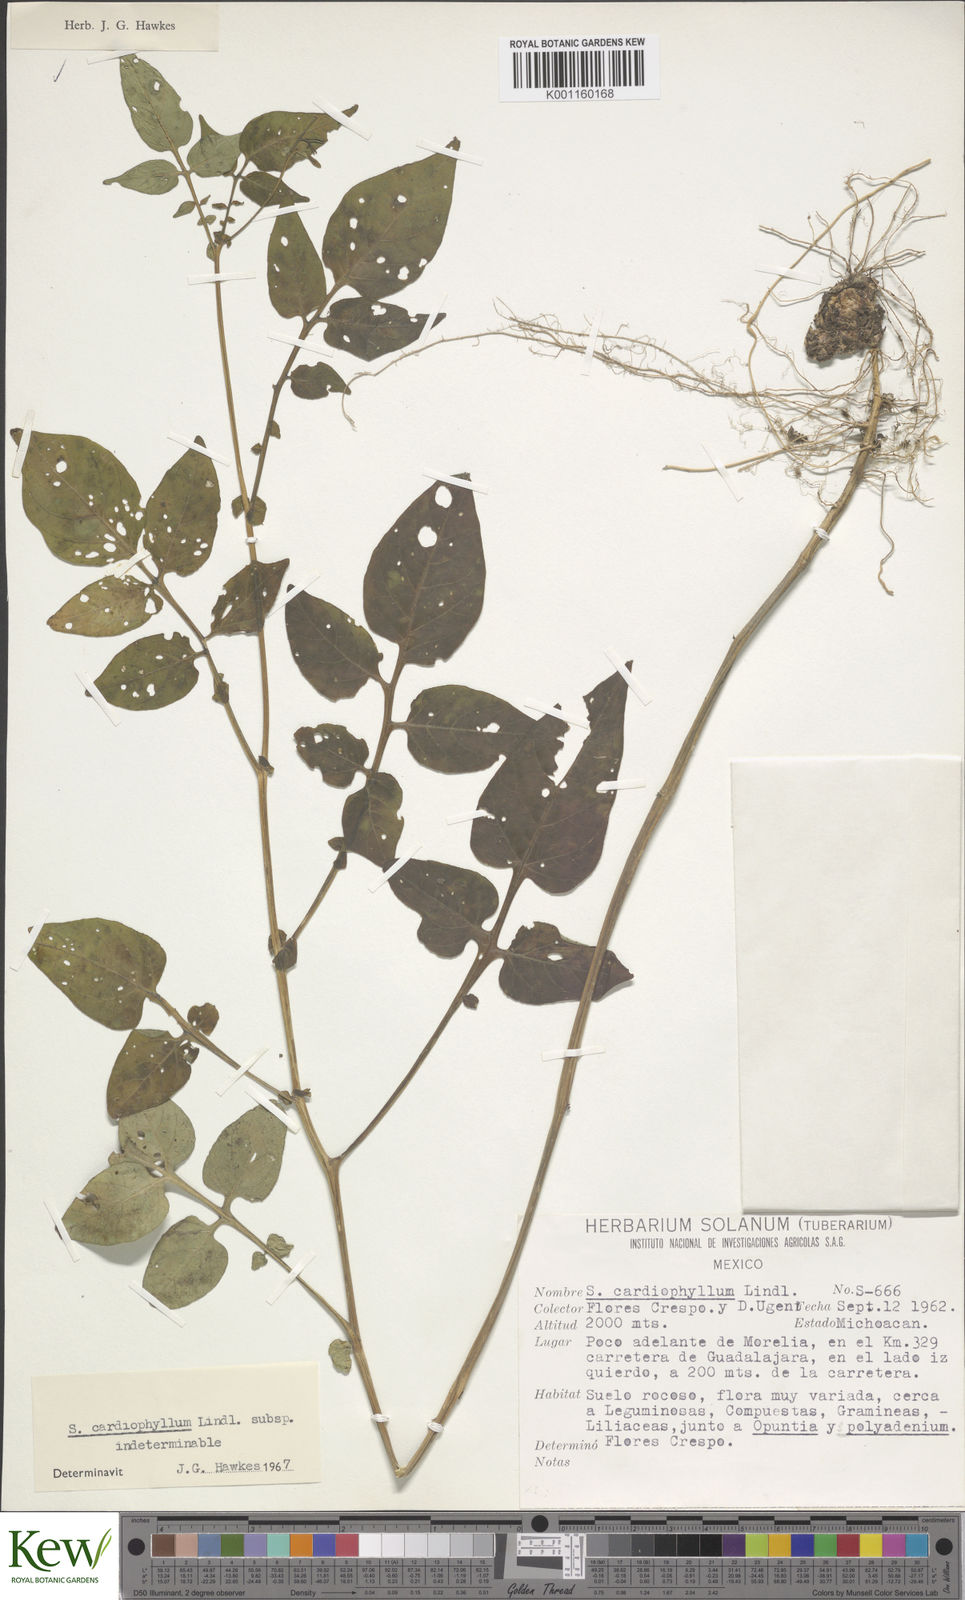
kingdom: Plantae
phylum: Tracheophyta
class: Magnoliopsida
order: Solanales
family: Solanaceae
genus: Solanum
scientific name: Solanum cardiophyllum
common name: Heartleaf horsenettle
